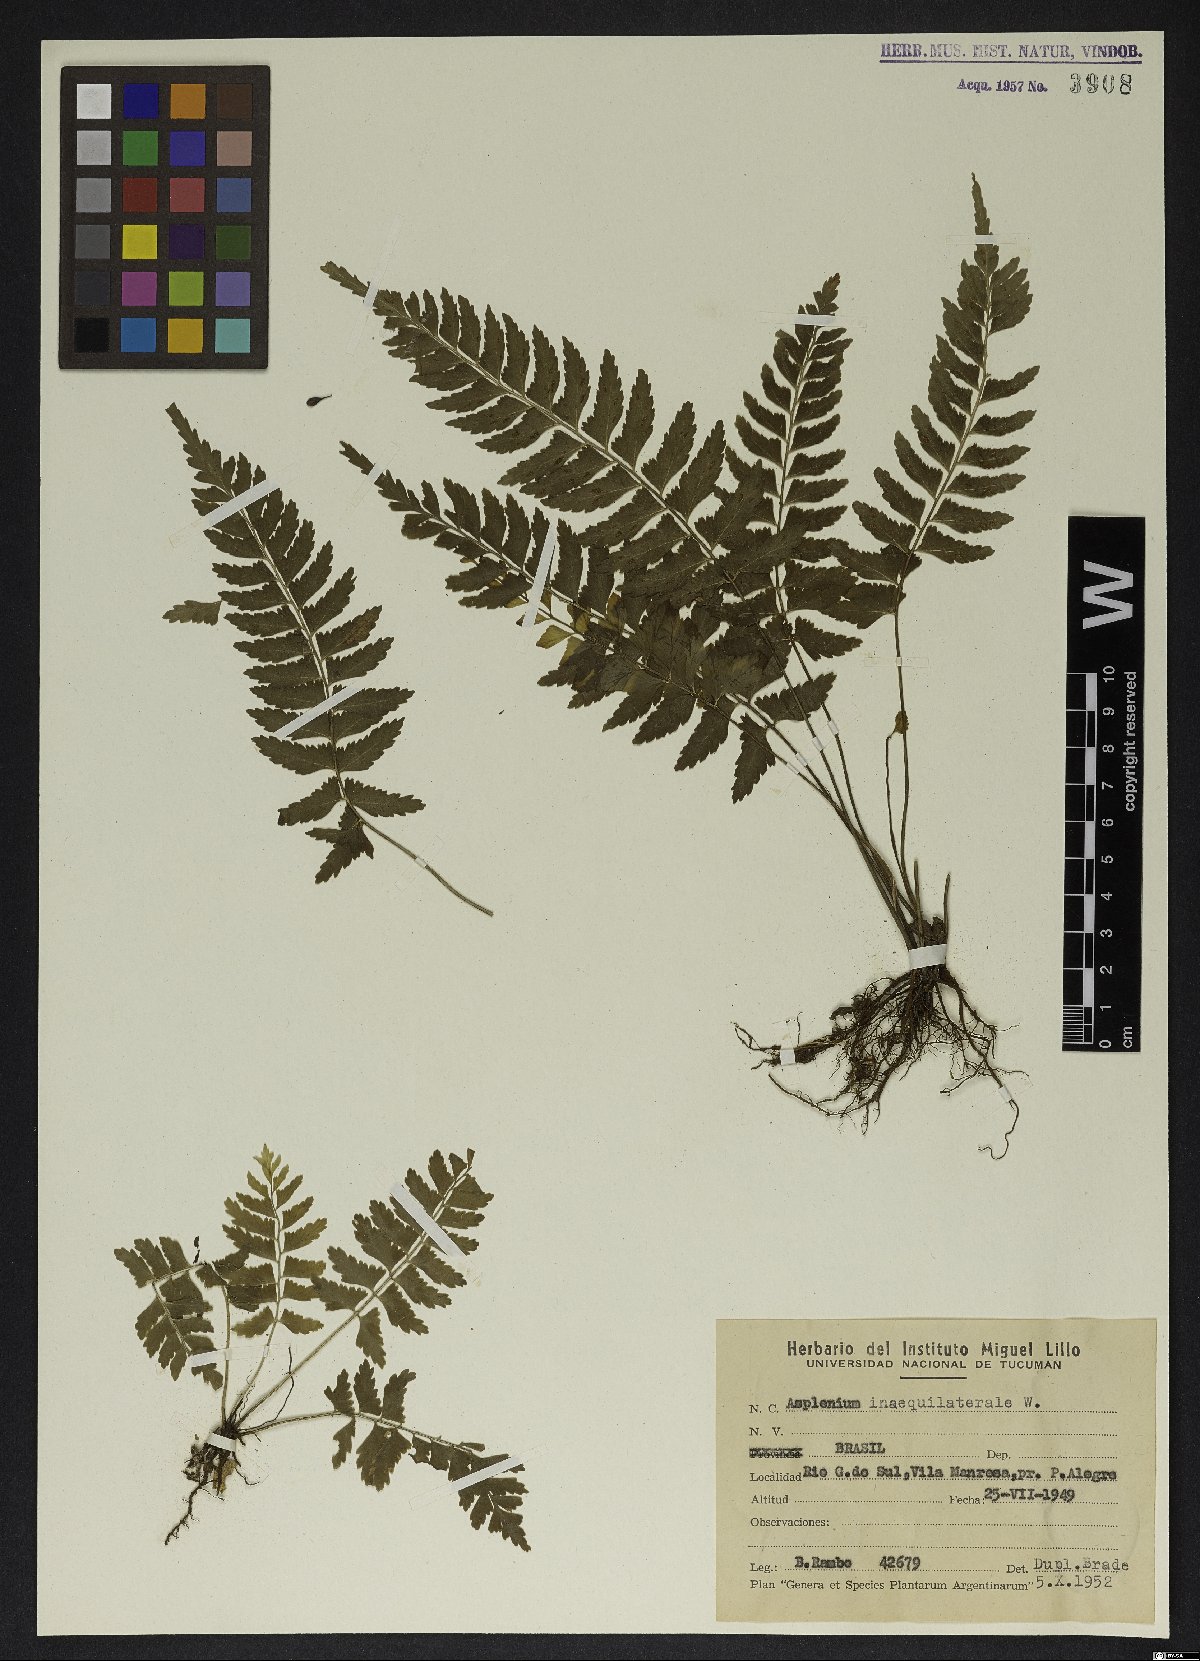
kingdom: Plantae
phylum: Tracheophyta
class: Polypodiopsida
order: Polypodiales
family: Aspleniaceae
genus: Asplenium
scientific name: Asplenium inaequilaterale
